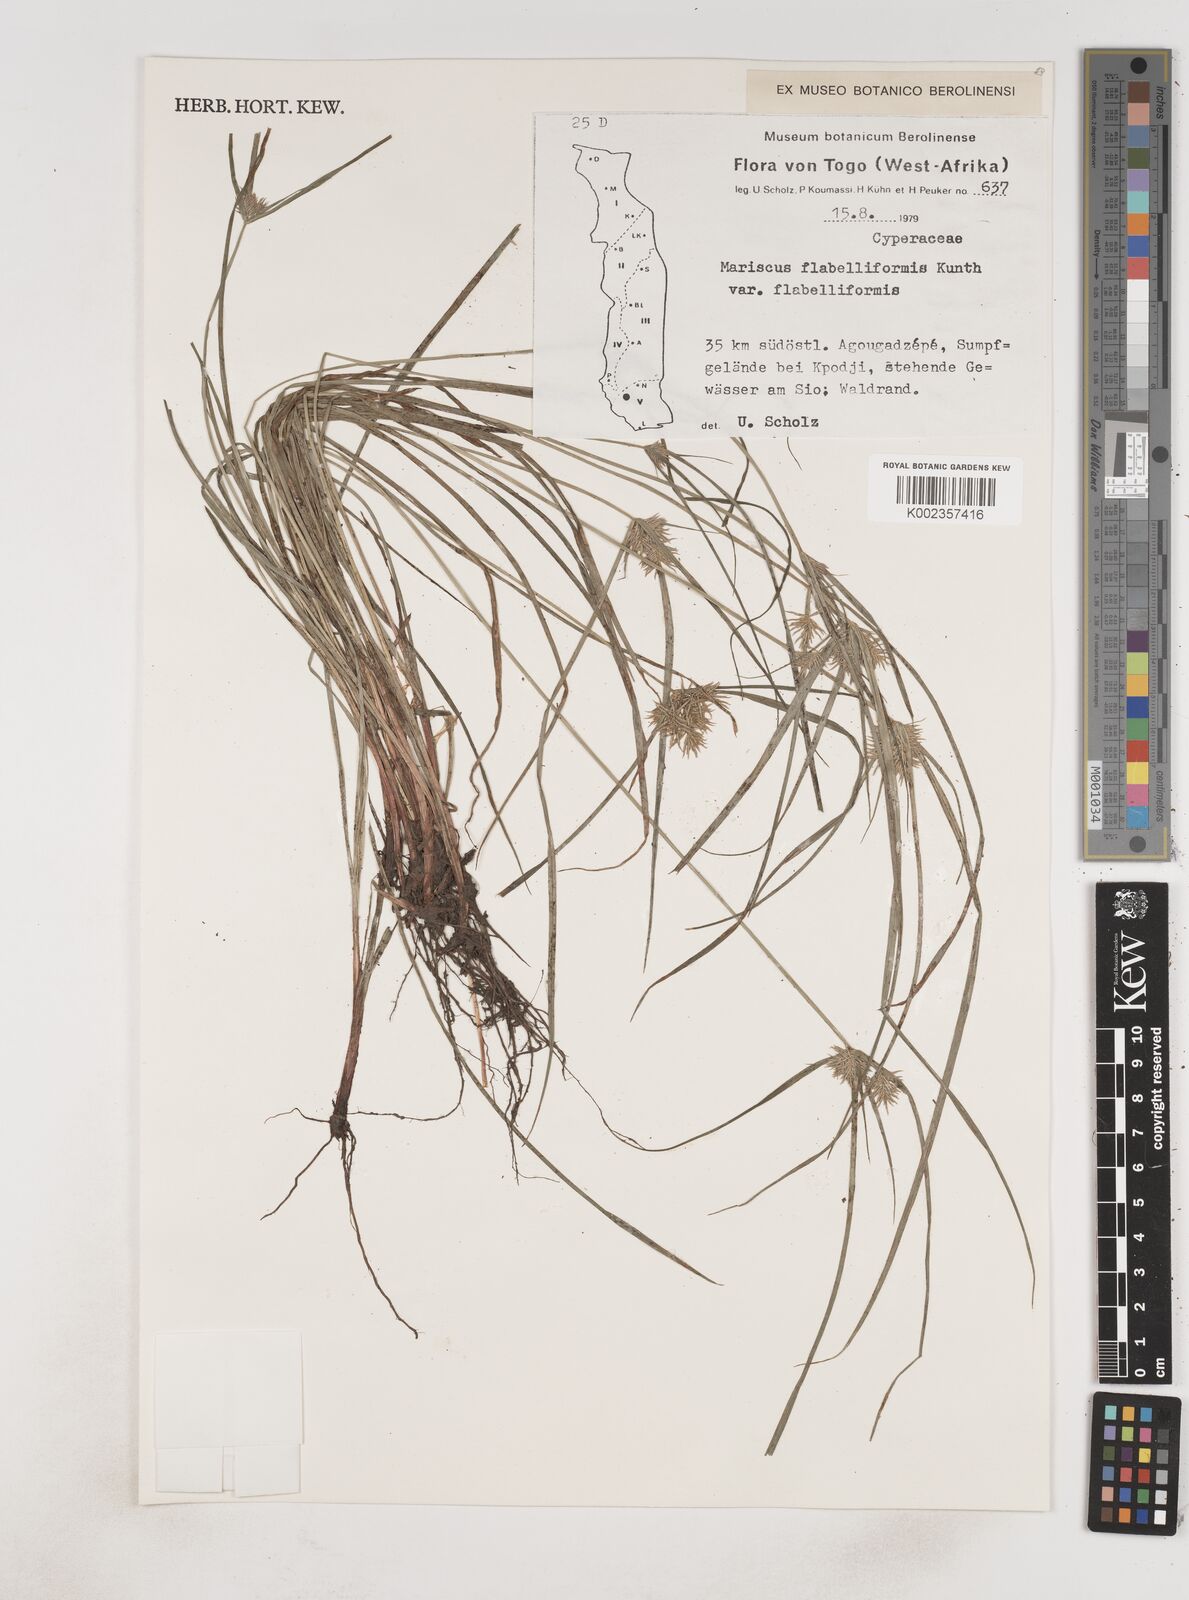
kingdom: Plantae
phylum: Tracheophyta
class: Liliopsida
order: Poales
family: Cyperaceae
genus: Cyperus
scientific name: Cyperus tenuis
